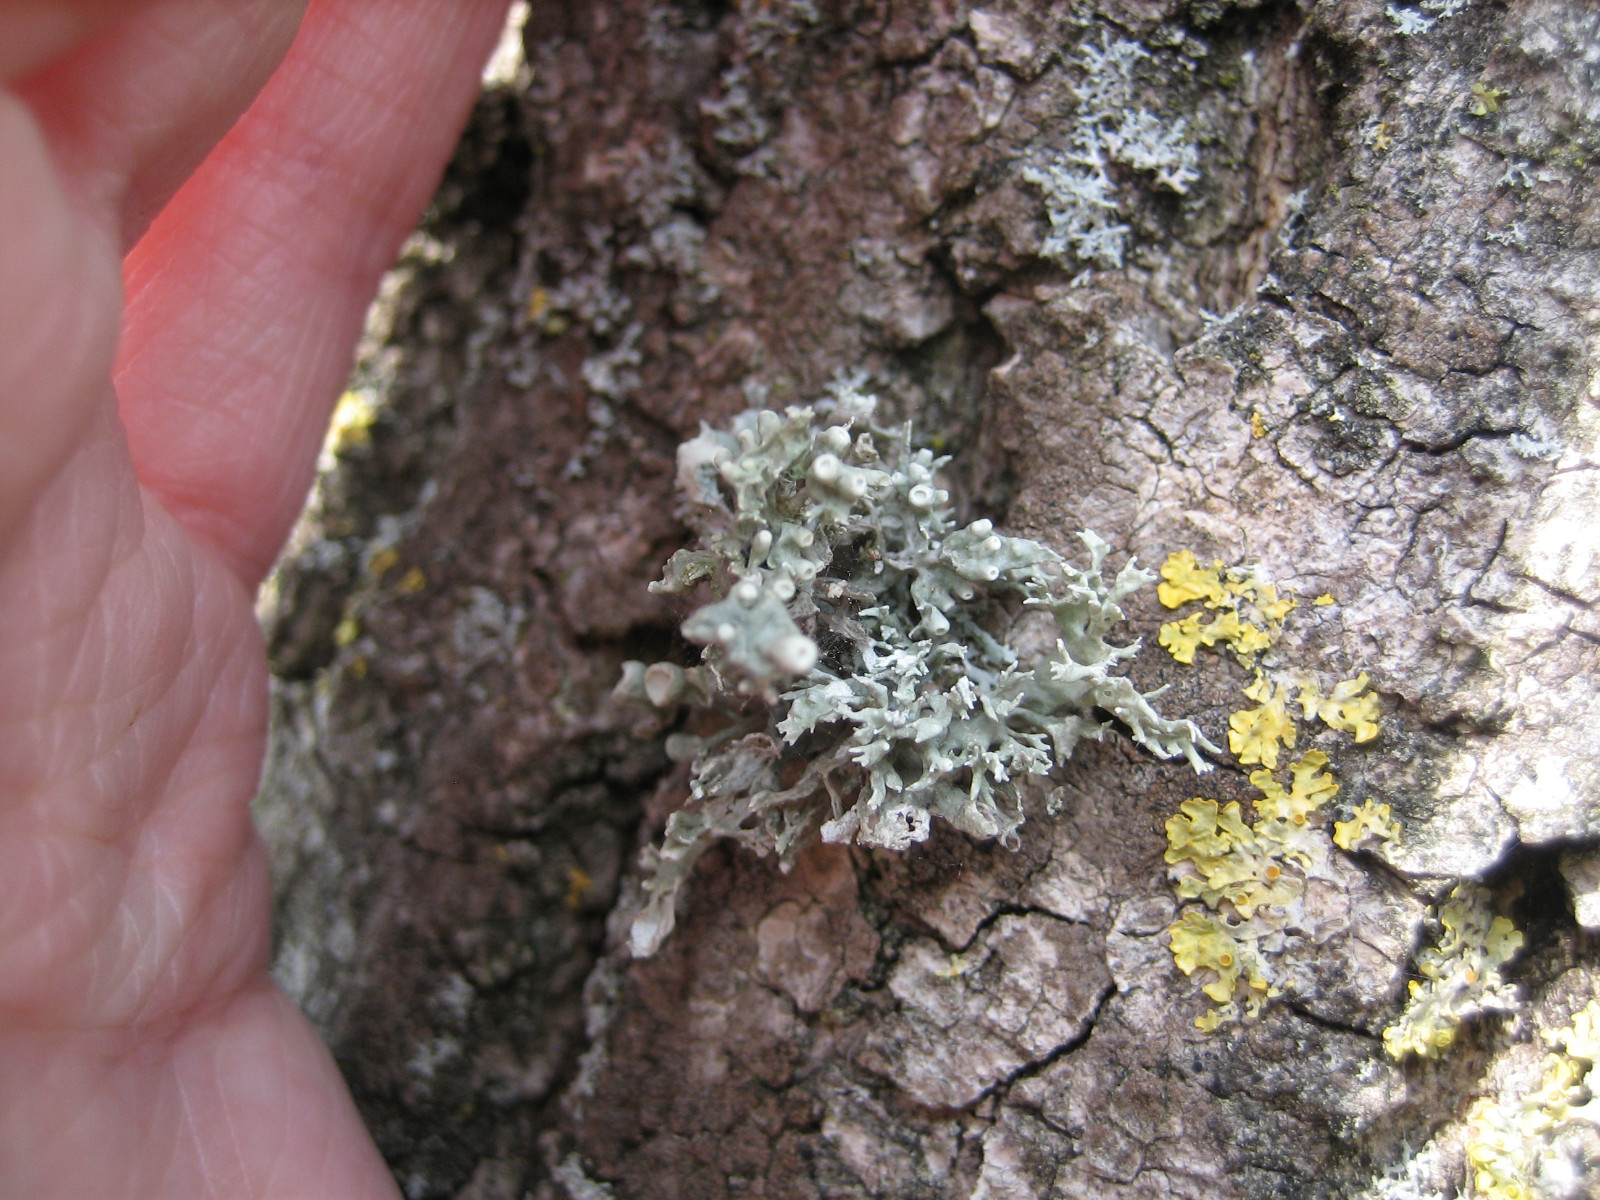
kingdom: Fungi
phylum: Ascomycota
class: Lecanoromycetes
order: Lecanorales
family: Ramalinaceae
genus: Ramalina
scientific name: Ramalina fastigiata
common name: tue-grenlav
